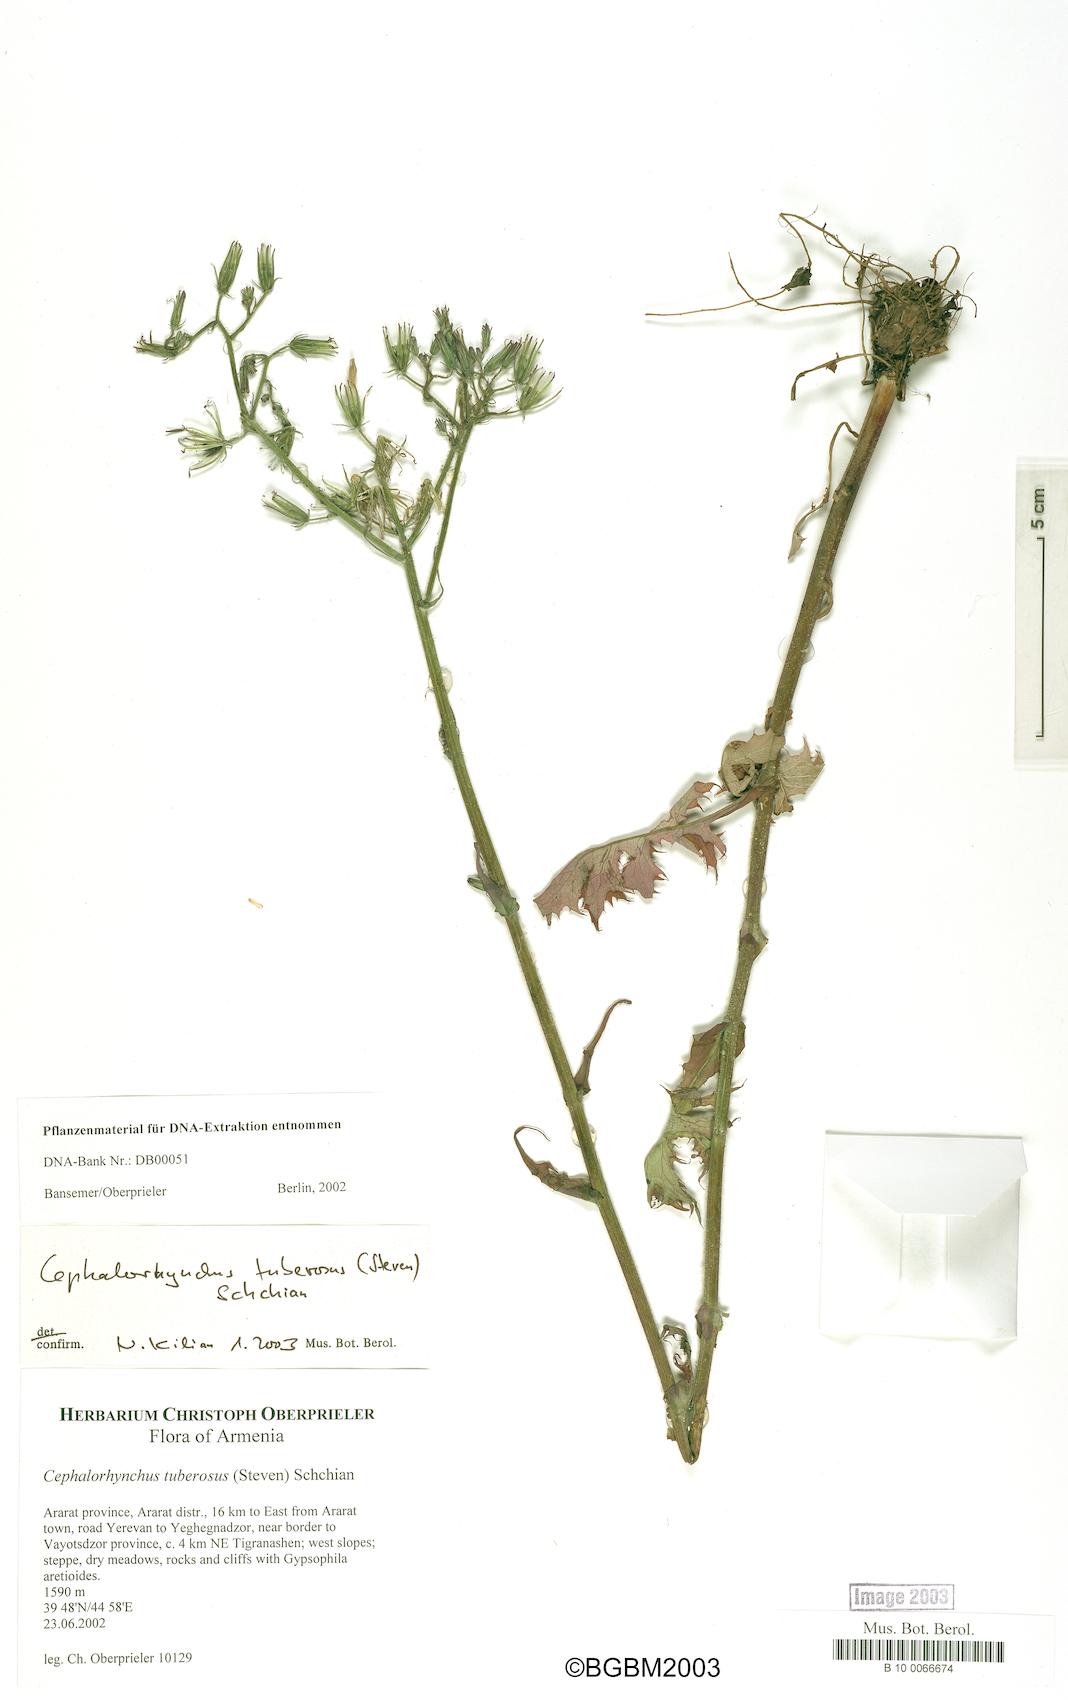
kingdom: Plantae
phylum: Tracheophyta
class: Magnoliopsida
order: Asterales
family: Asteraceae
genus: Lactuca
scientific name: Lactuca hispida
